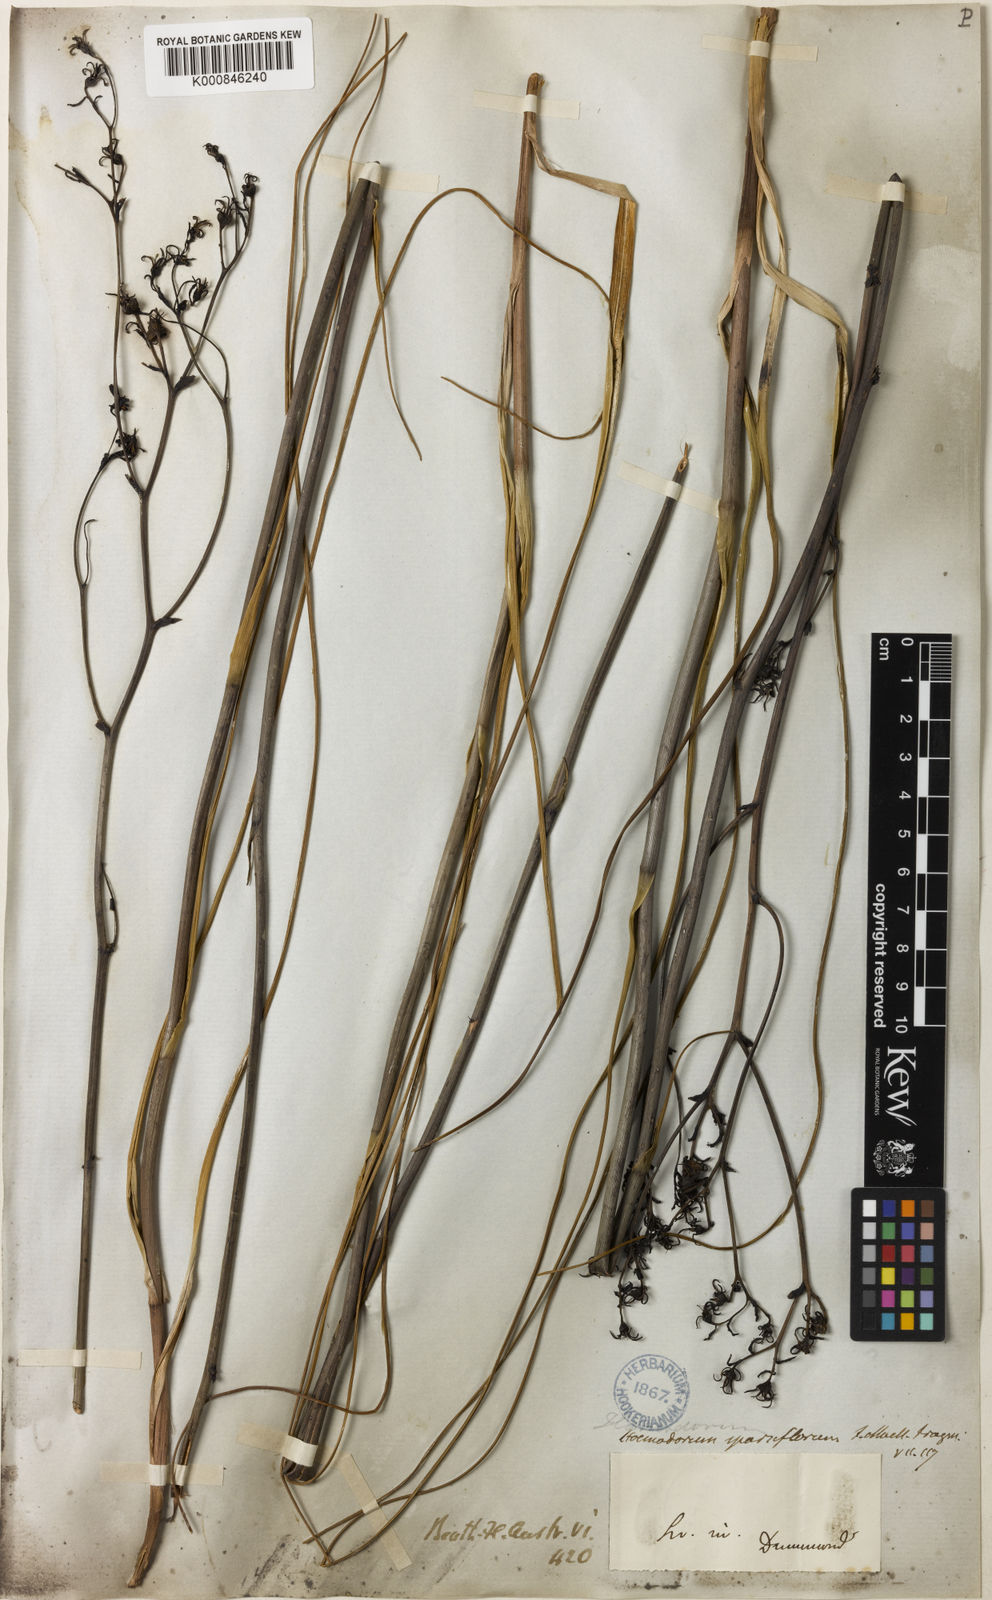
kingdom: Plantae
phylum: Tracheophyta
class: Liliopsida
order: Commelinales
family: Haemodoraceae
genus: Haemodorum
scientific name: Haemodorum sparsiflorum
